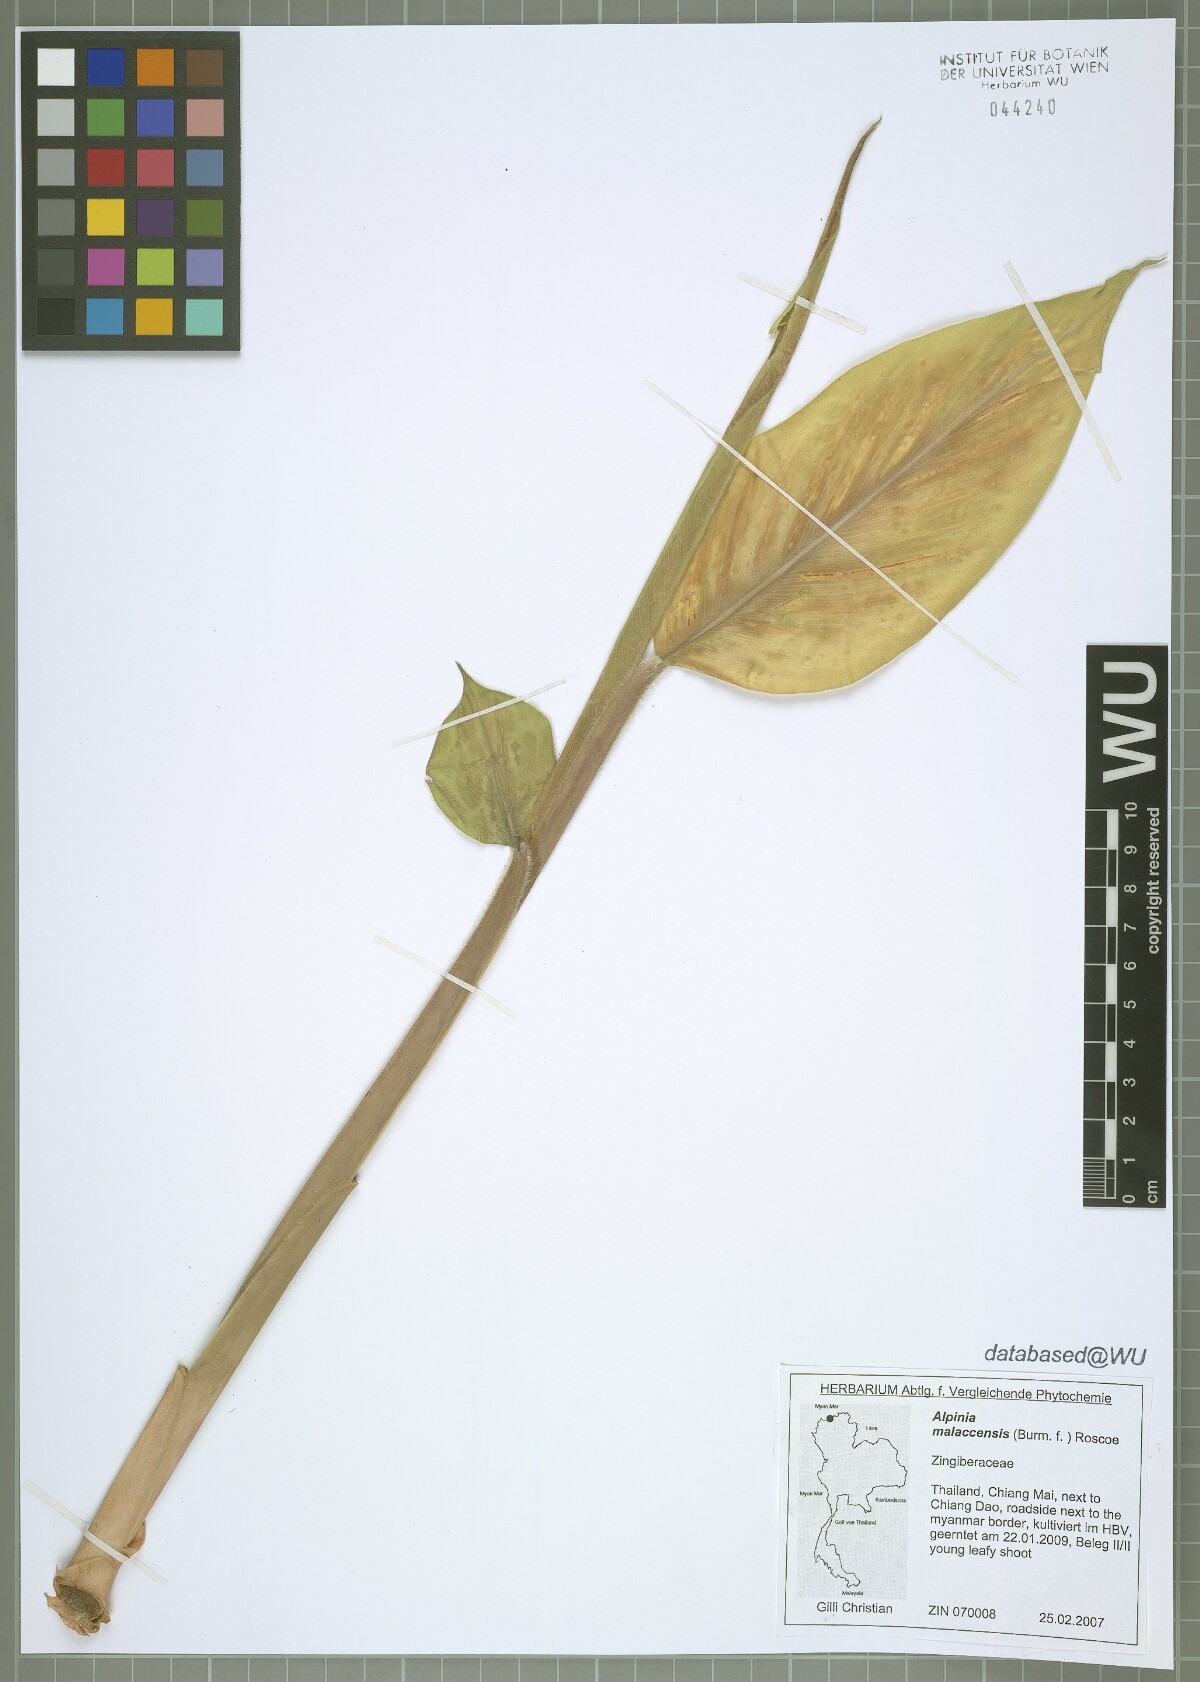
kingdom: Plantae
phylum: Tracheophyta
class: Liliopsida
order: Zingiberales
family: Zingiberaceae
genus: Alpinia
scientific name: Alpinia malaccensis
